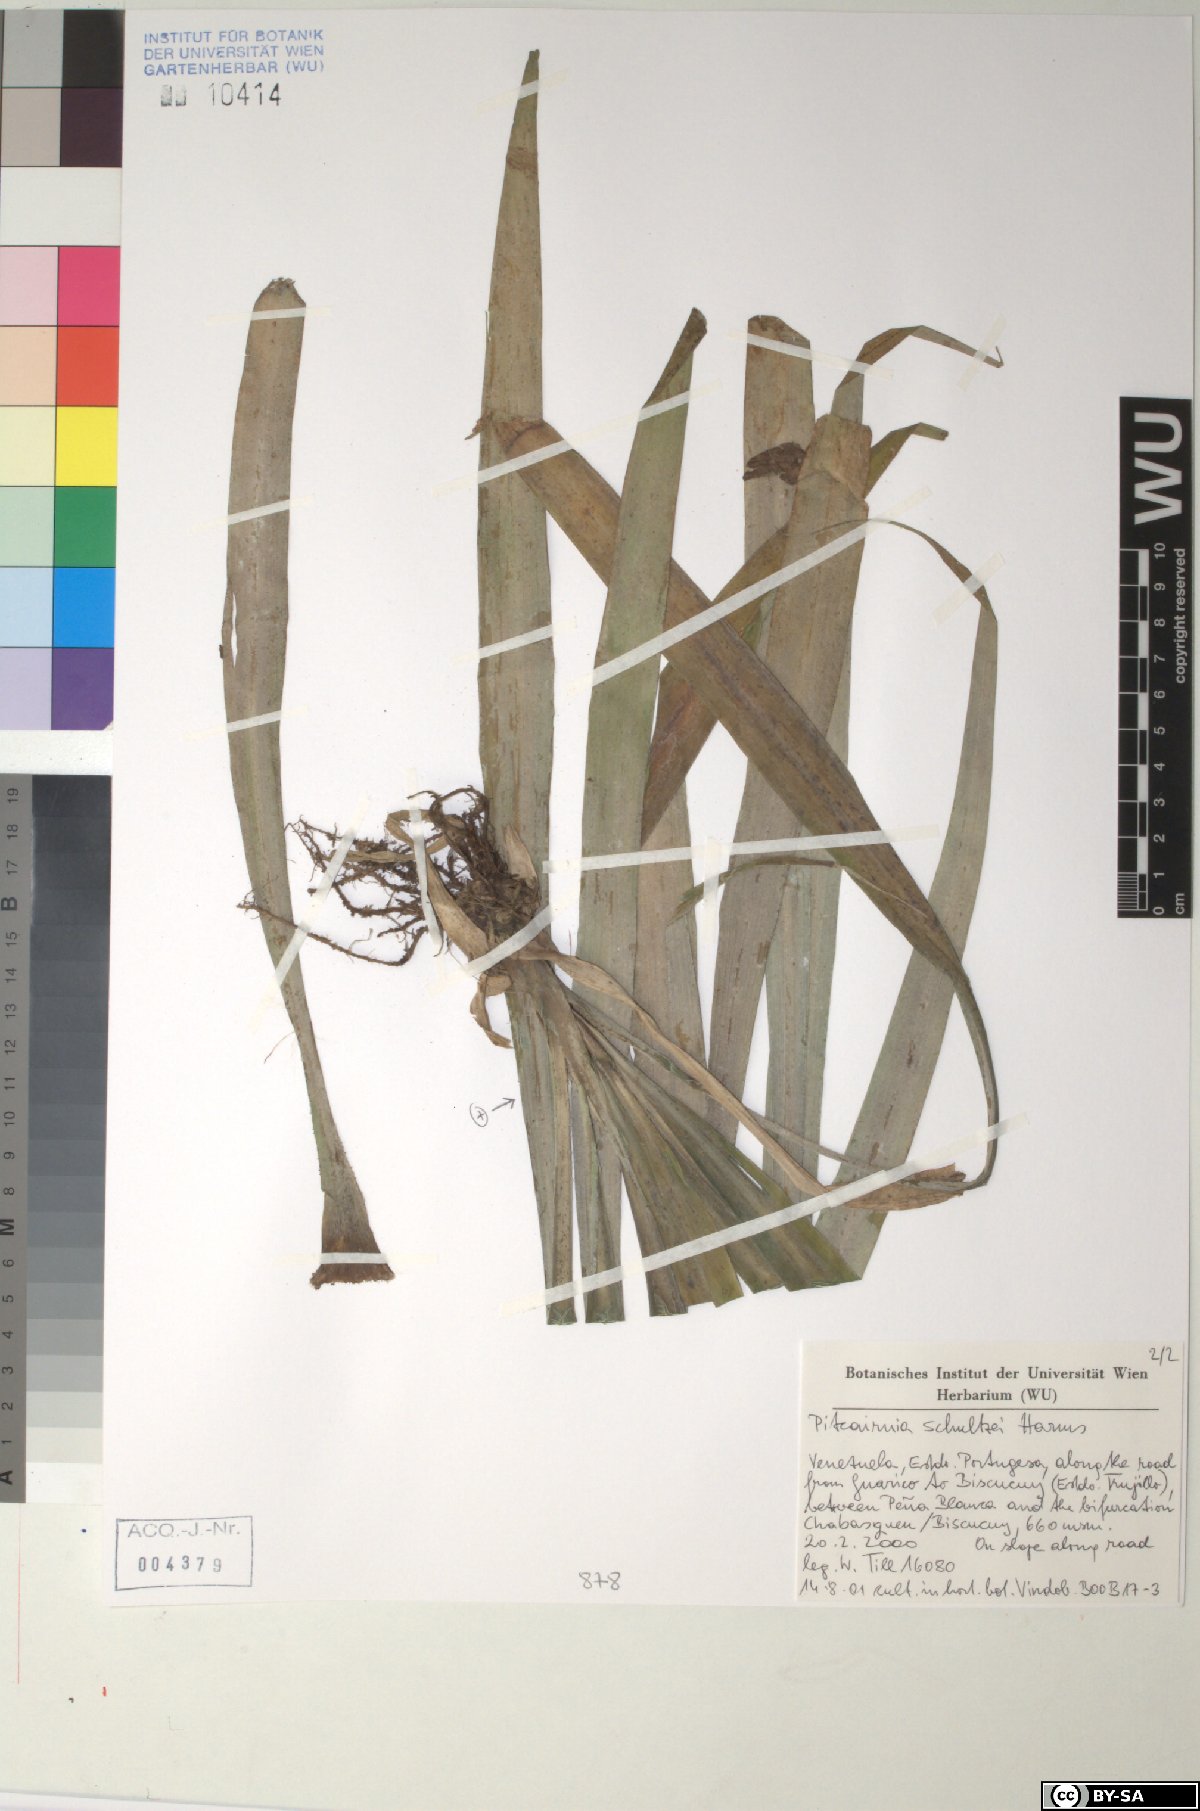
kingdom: Plantae
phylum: Tracheophyta
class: Liliopsida
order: Poales
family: Bromeliaceae
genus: Pitcairnia
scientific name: Pitcairnia schultzei
